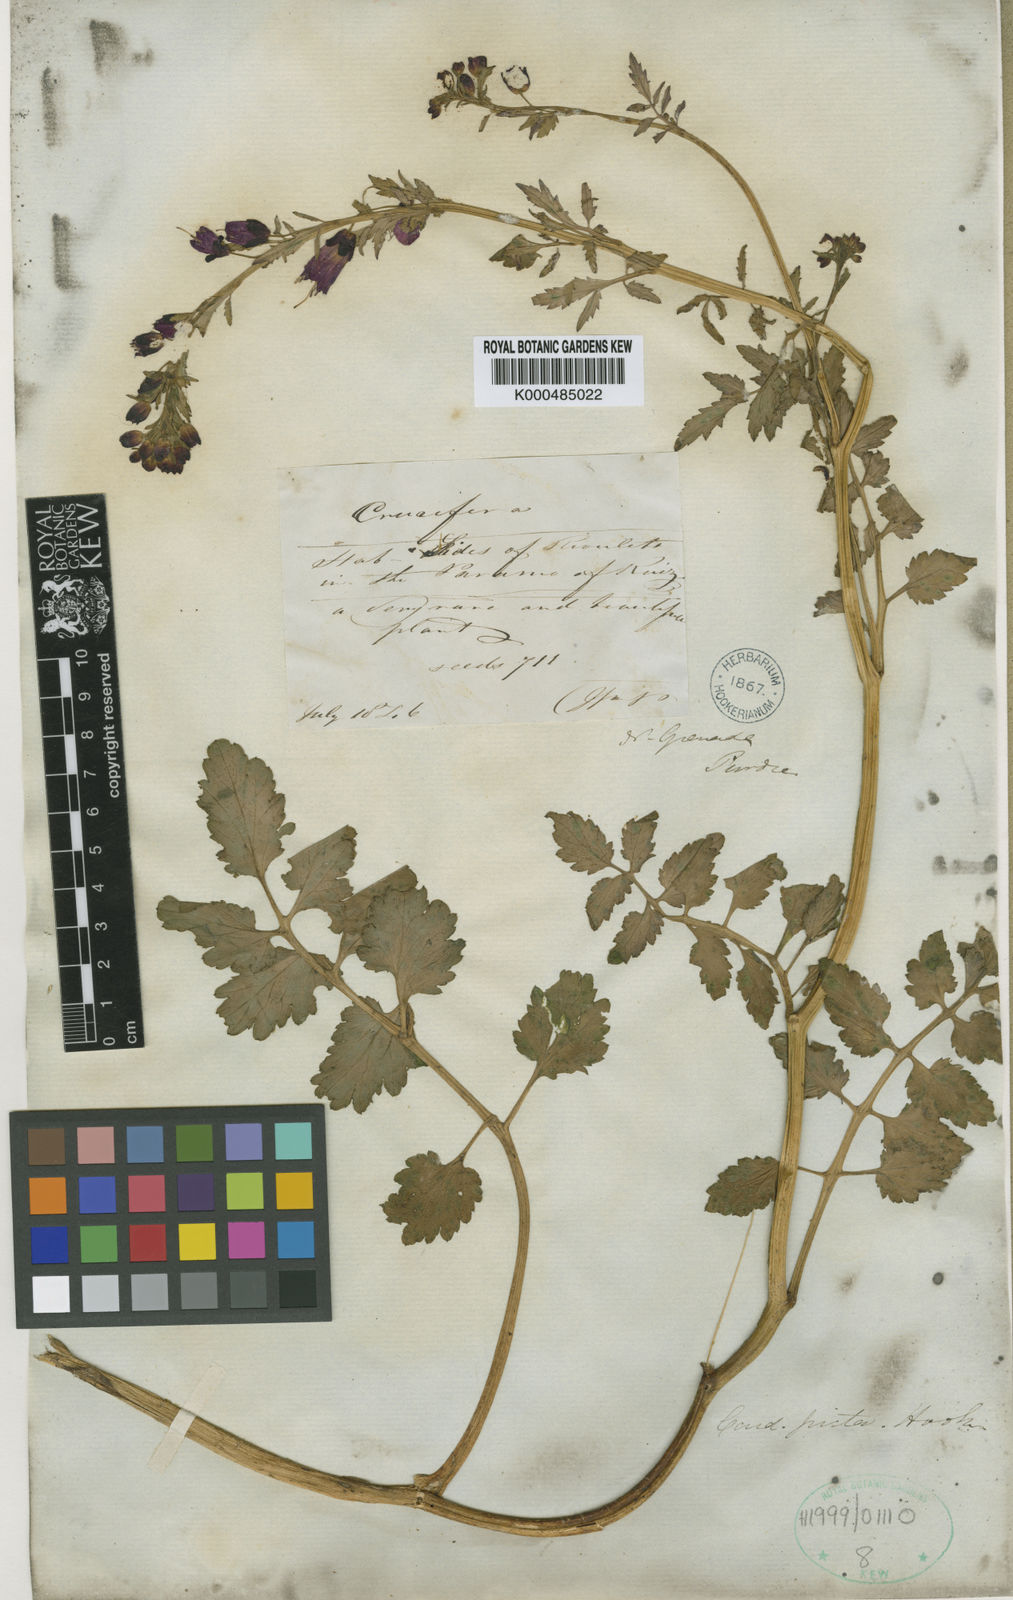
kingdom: Plantae
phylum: Tracheophyta
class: Magnoliopsida
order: Brassicales
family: Brassicaceae
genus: Cardamine
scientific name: Cardamine picta
